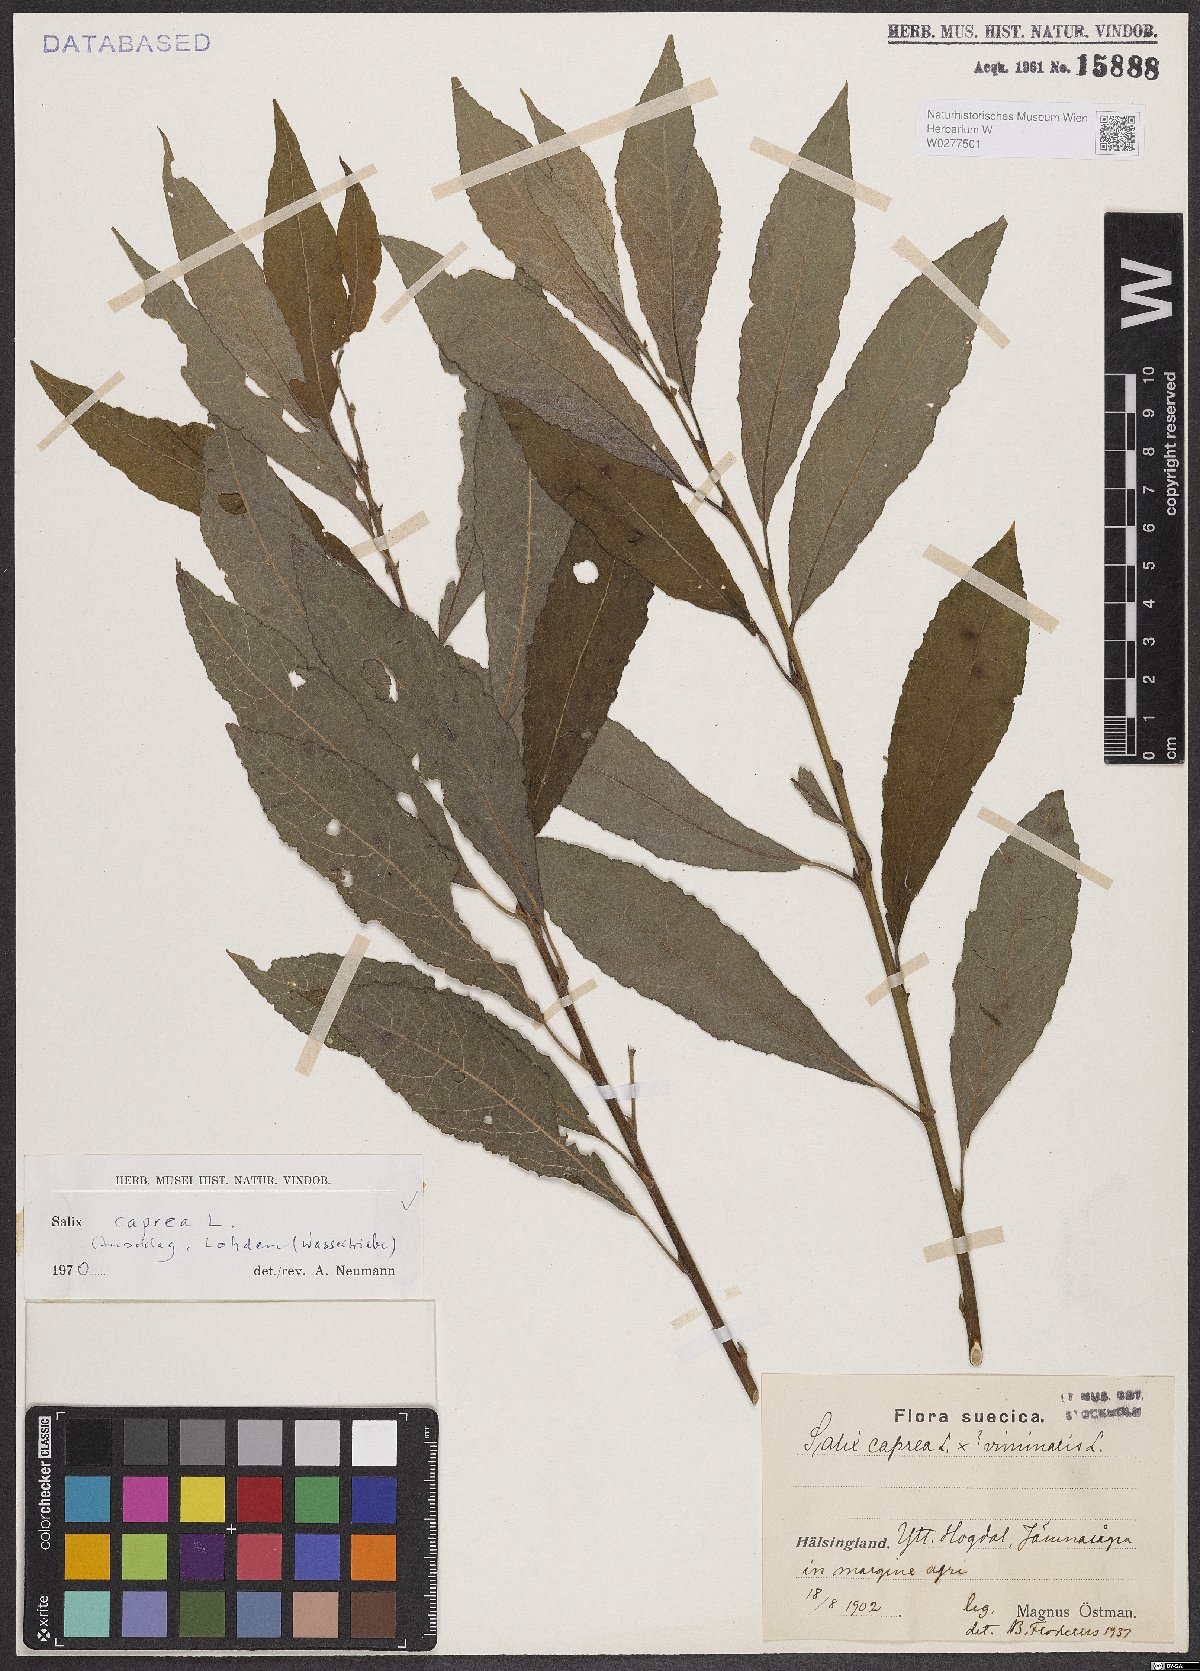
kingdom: Plantae
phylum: Tracheophyta
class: Magnoliopsida
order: Malpighiales
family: Salicaceae
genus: Salix
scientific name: Salix caprea
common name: Goat willow
